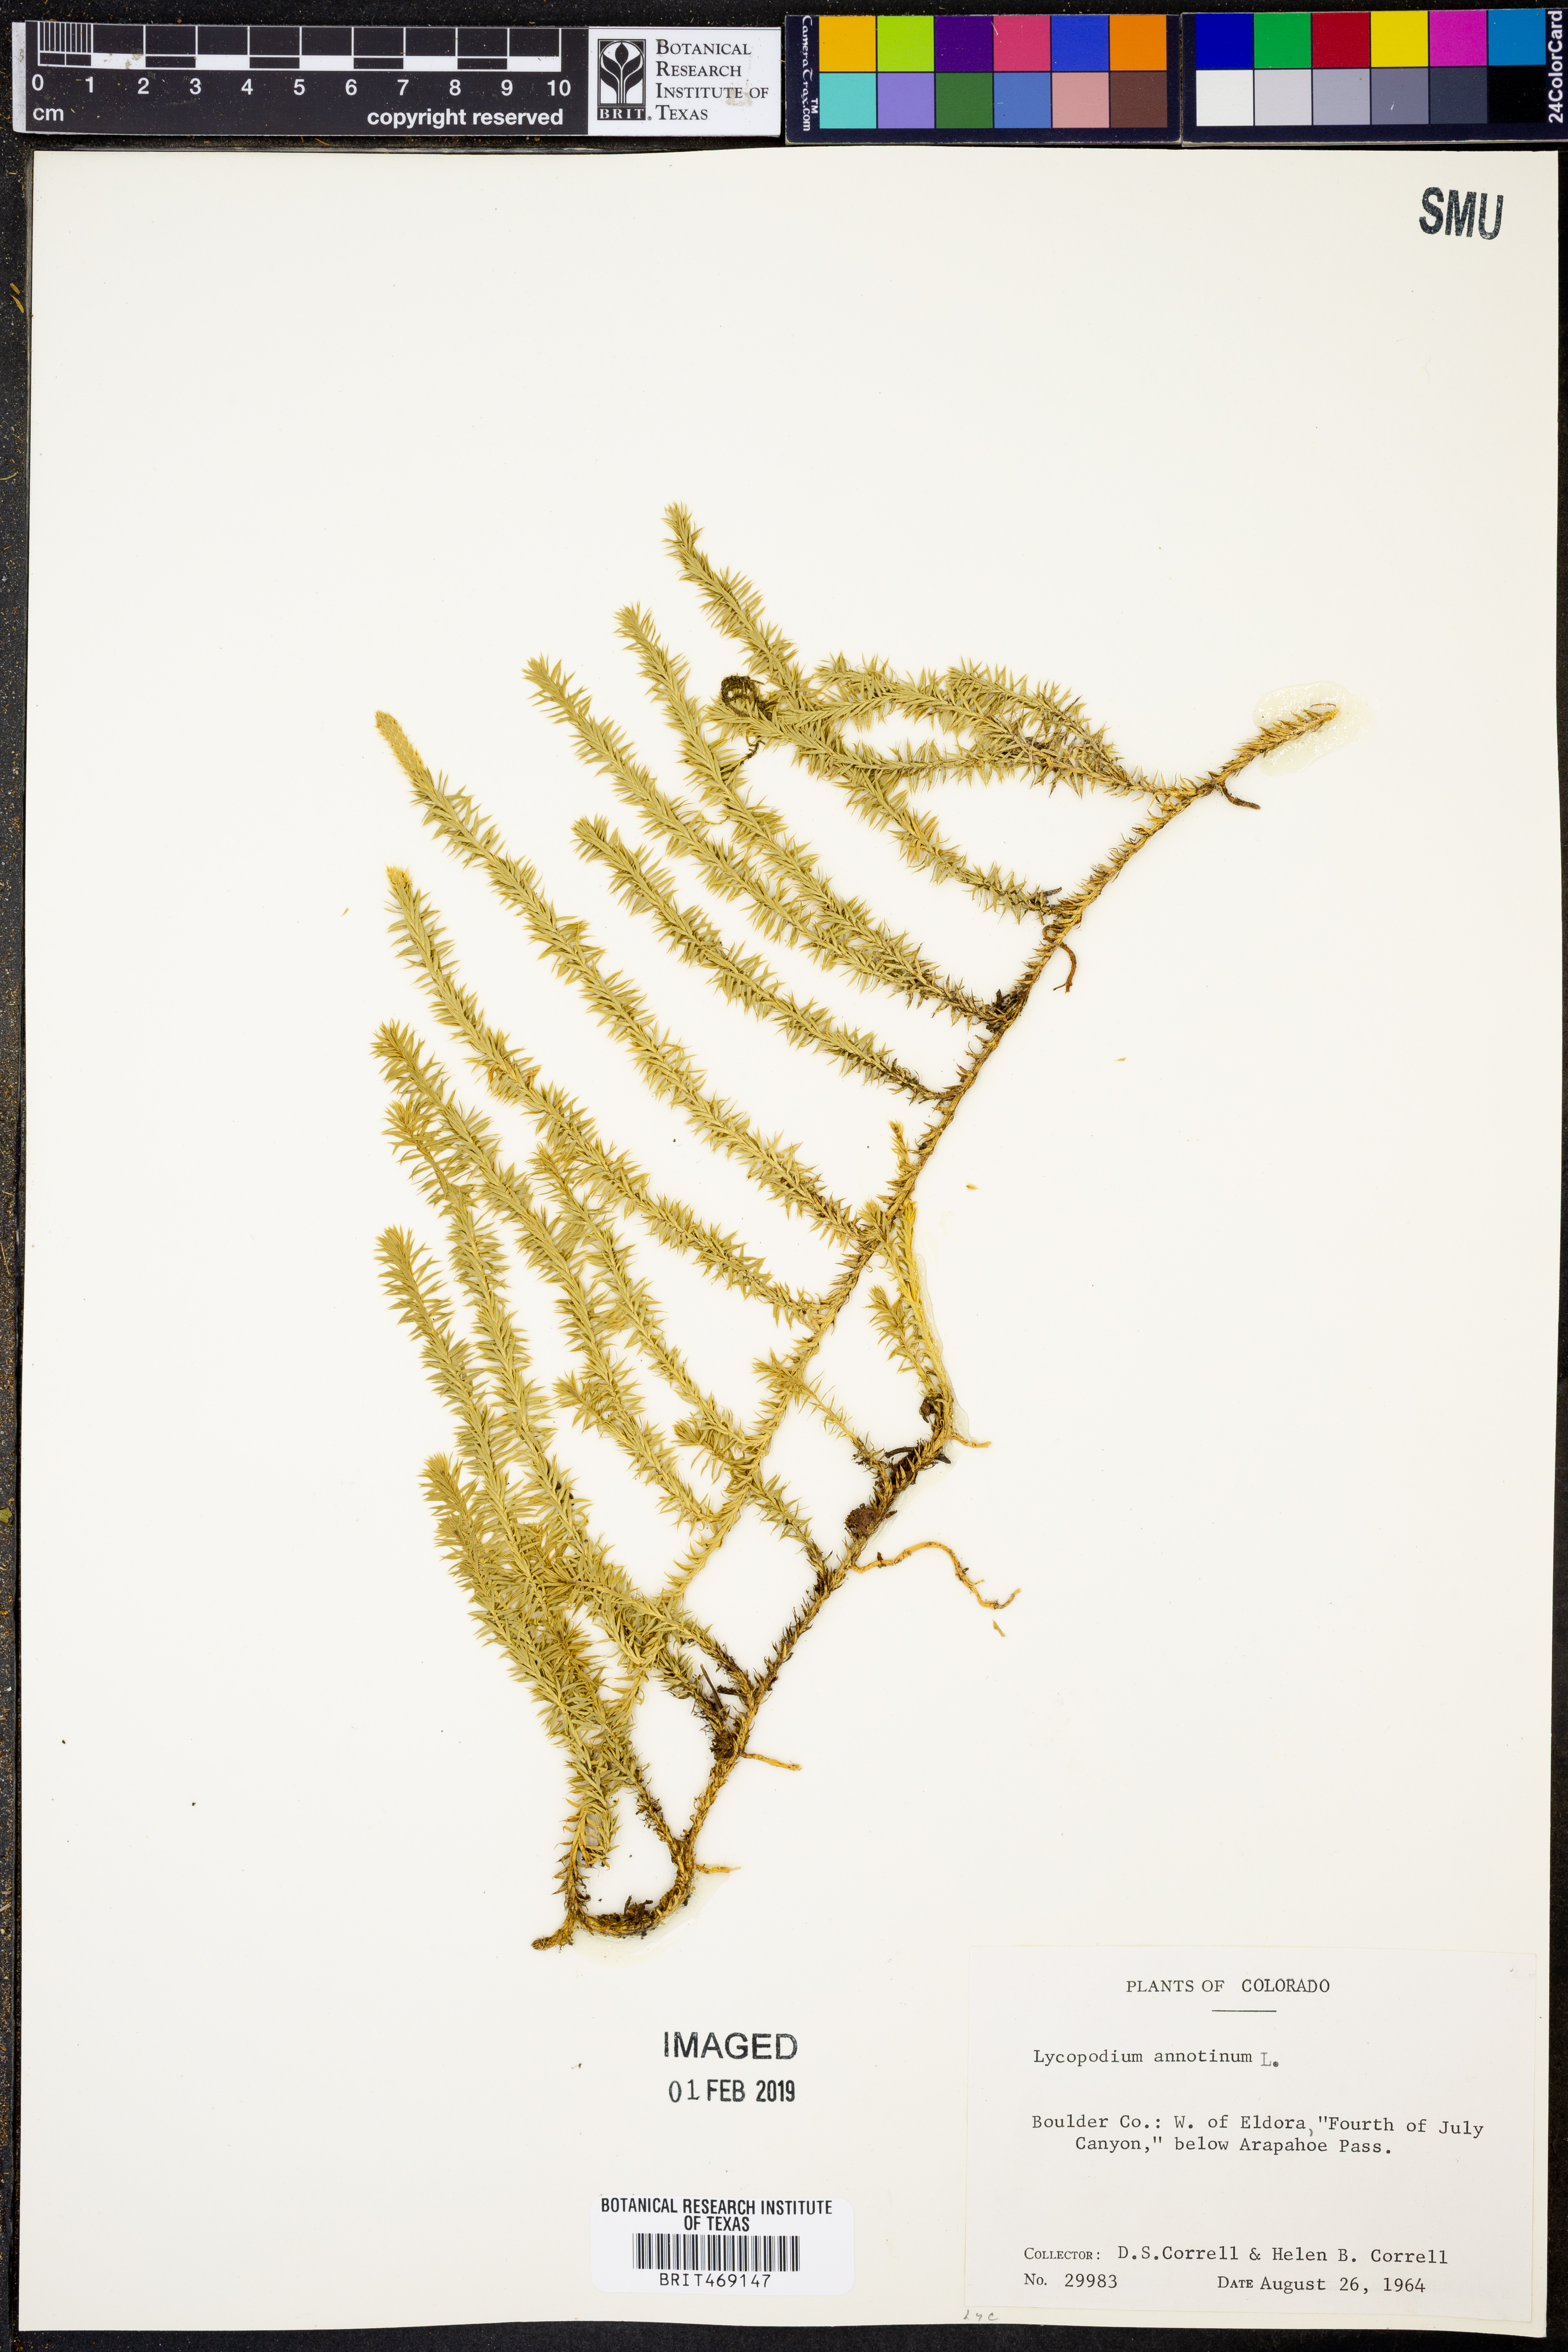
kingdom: Plantae
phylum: Tracheophyta
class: Lycopodiopsida
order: Lycopodiales
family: Lycopodiaceae
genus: Spinulum
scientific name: Spinulum annotinum
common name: Interrupted club-moss
